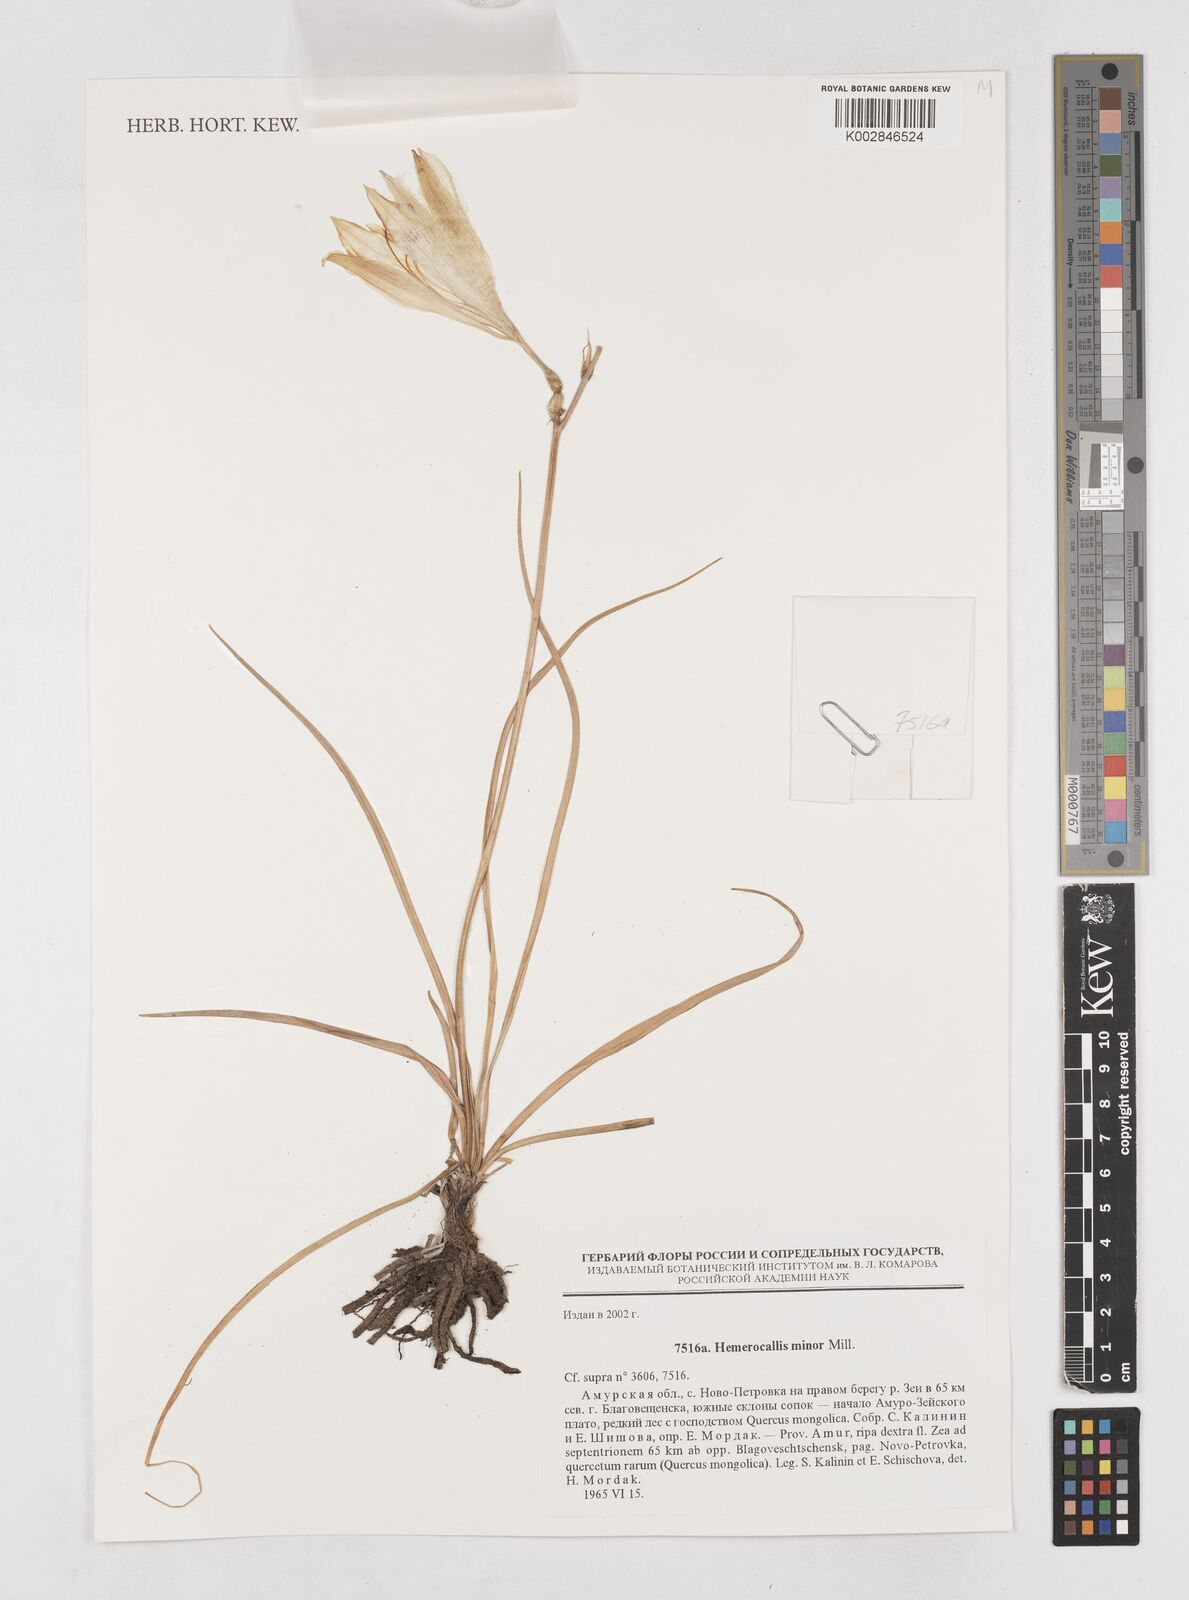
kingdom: Plantae
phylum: Tracheophyta
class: Liliopsida
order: Asparagales
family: Asphodelaceae
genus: Hemerocallis
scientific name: Hemerocallis minor
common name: Small daylily
